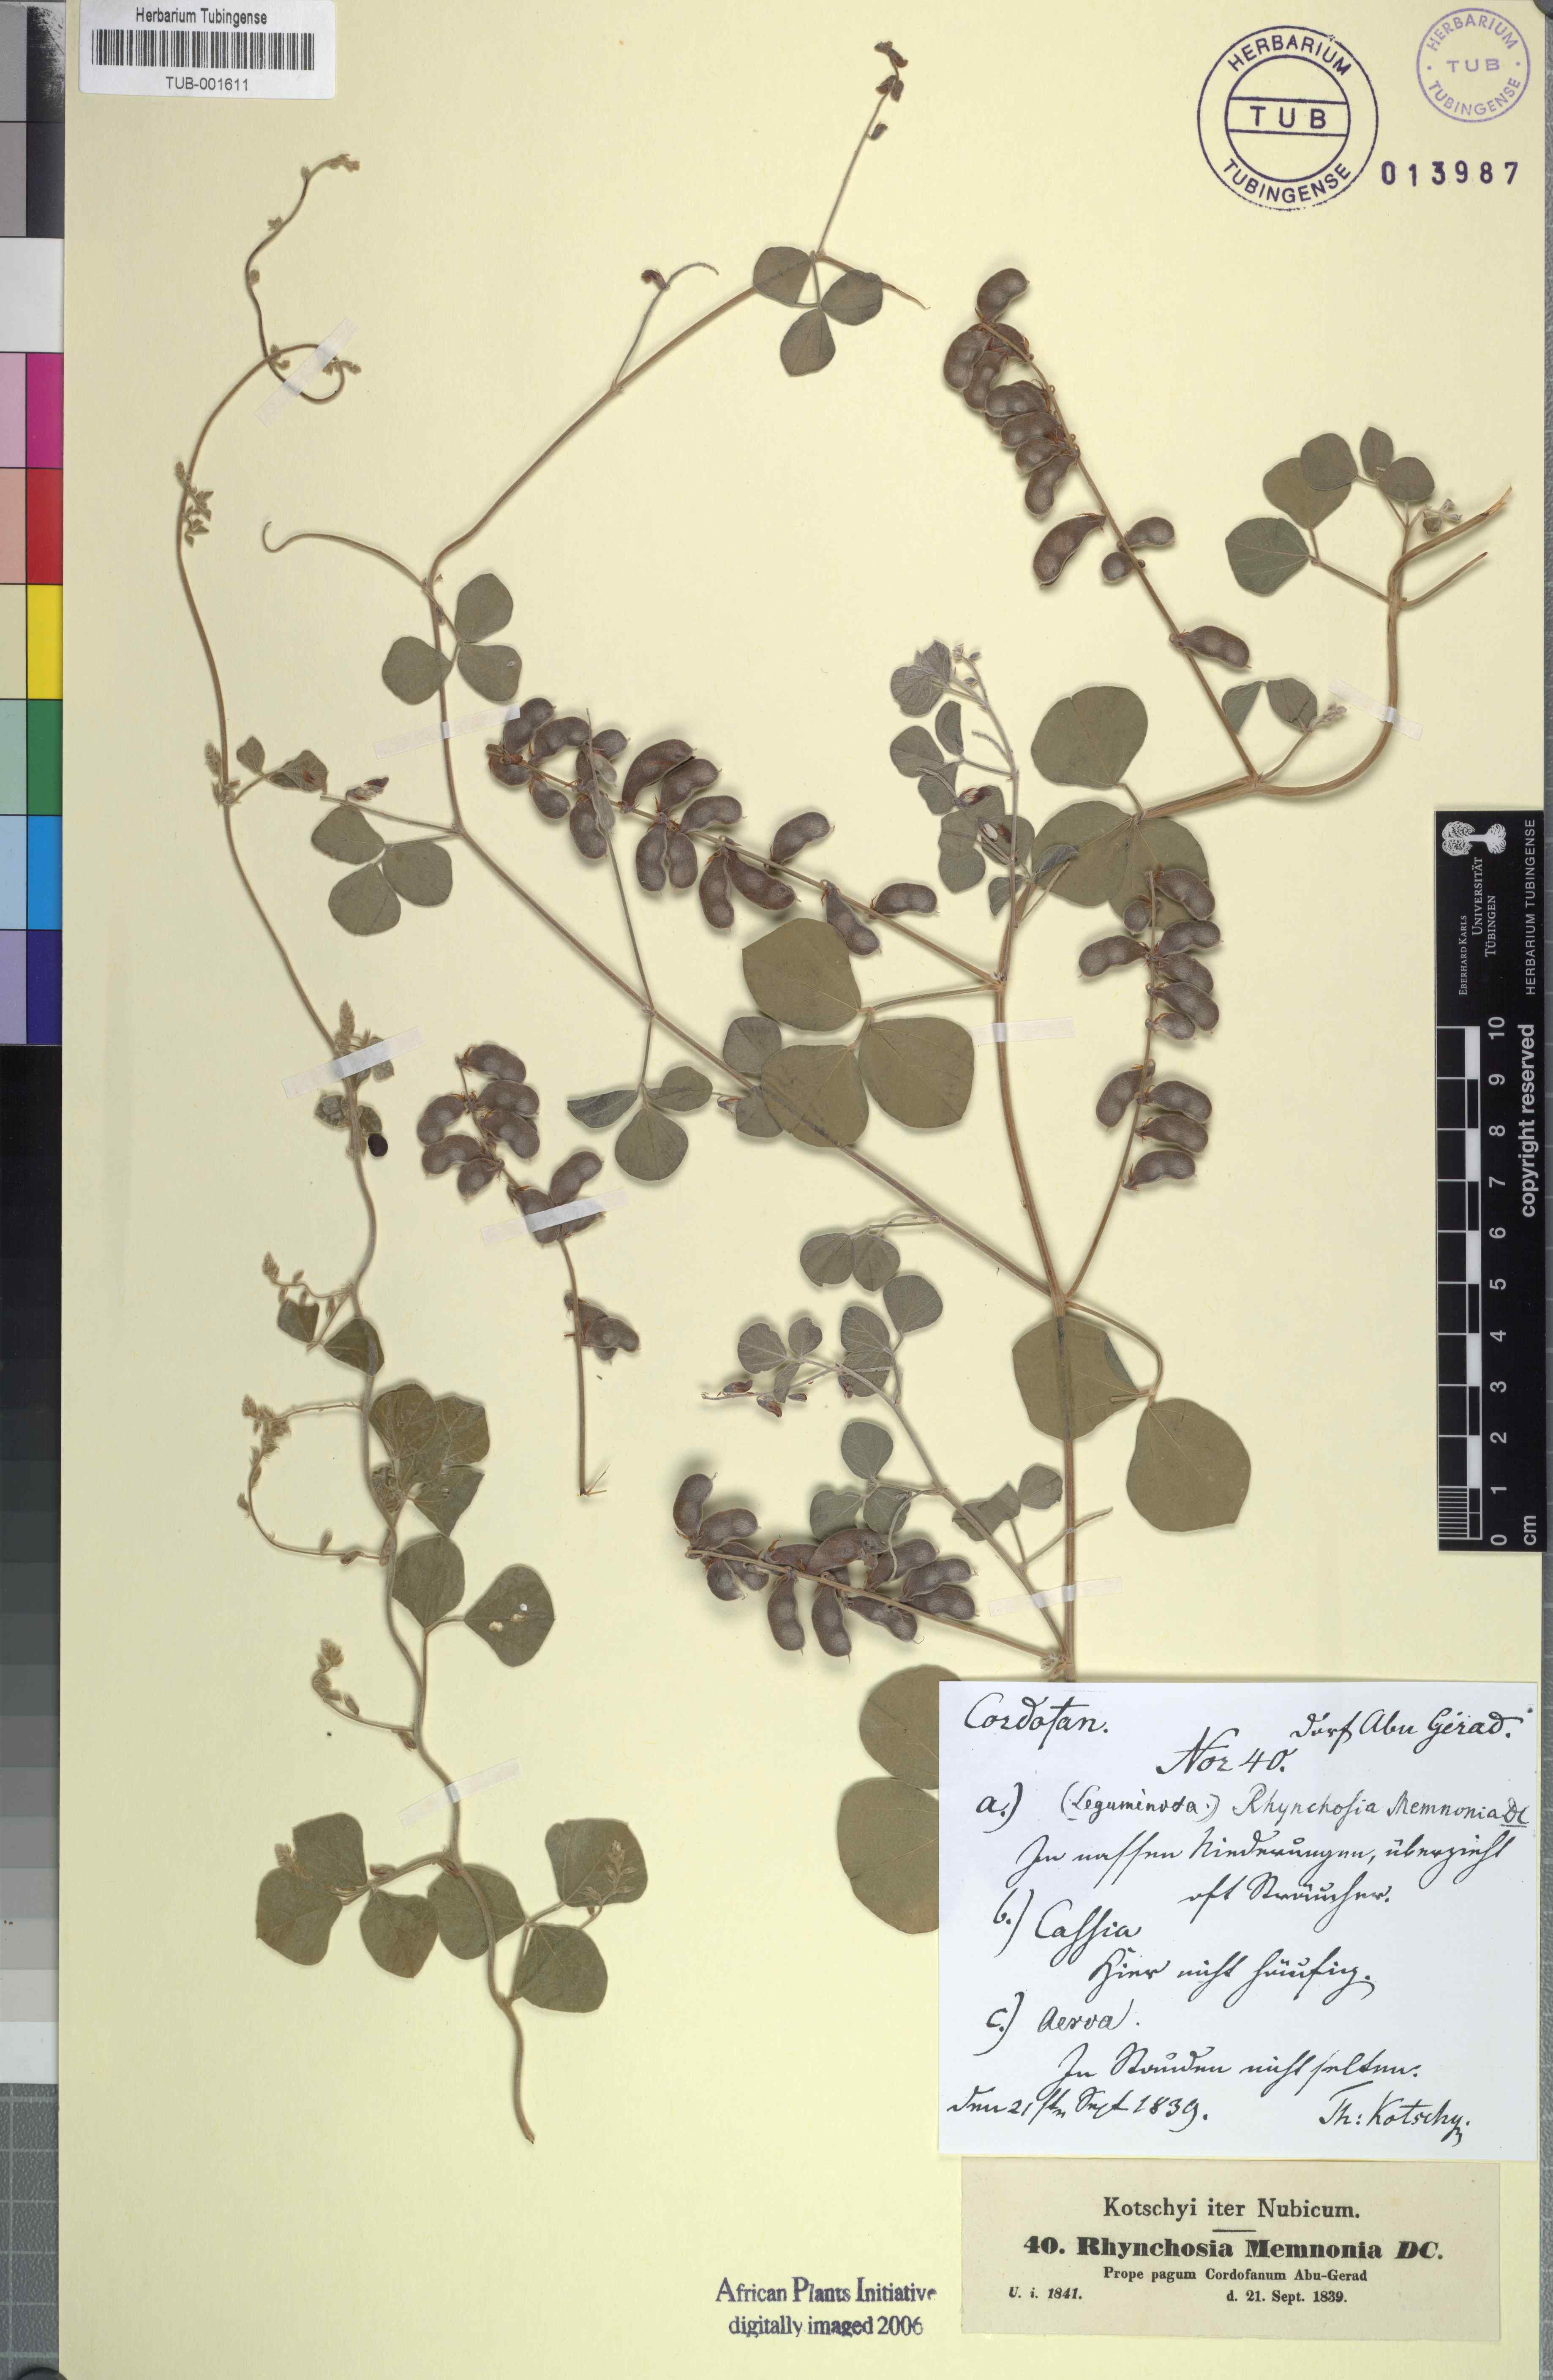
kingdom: Plantae
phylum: Tracheophyta
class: Magnoliopsida
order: Fabales
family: Fabaceae
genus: Rhynchosia
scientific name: Rhynchosia minima
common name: Least snoutbean
